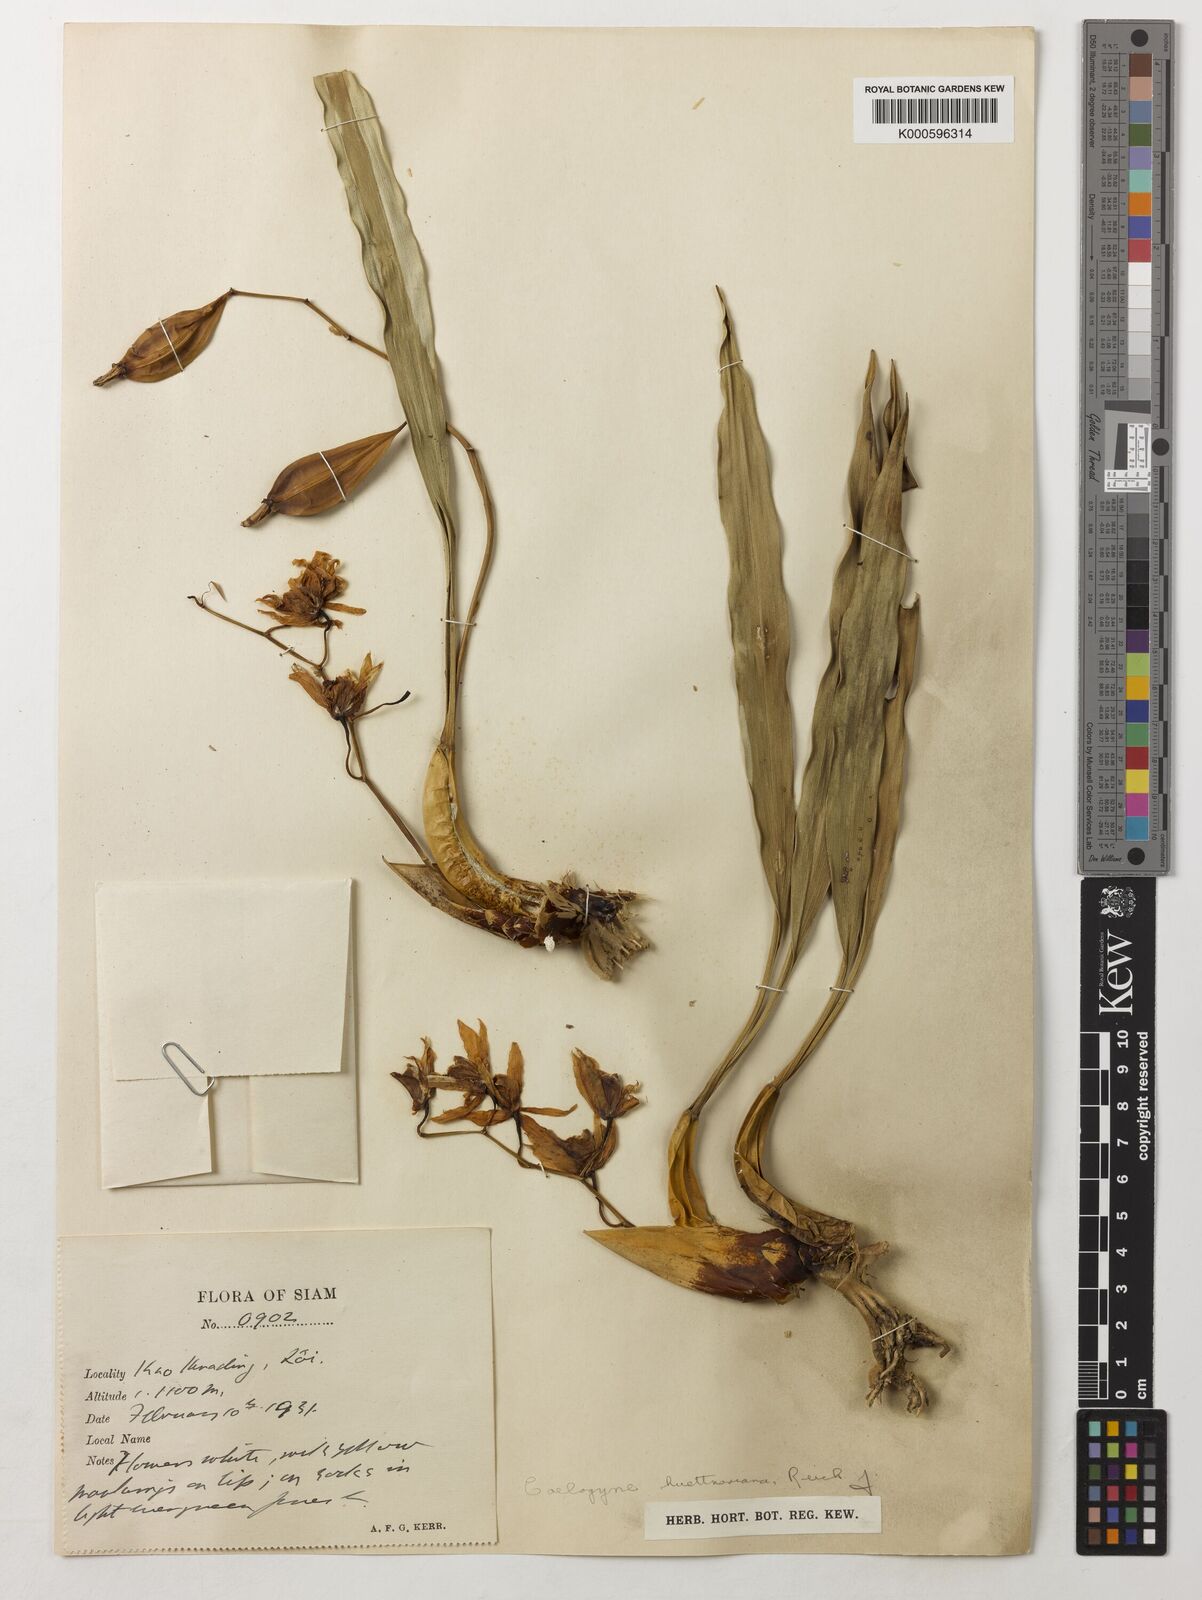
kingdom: Plantae
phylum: Tracheophyta
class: Liliopsida
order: Asparagales
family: Orchidaceae
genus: Coelogyne
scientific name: Coelogyne huettneriana
